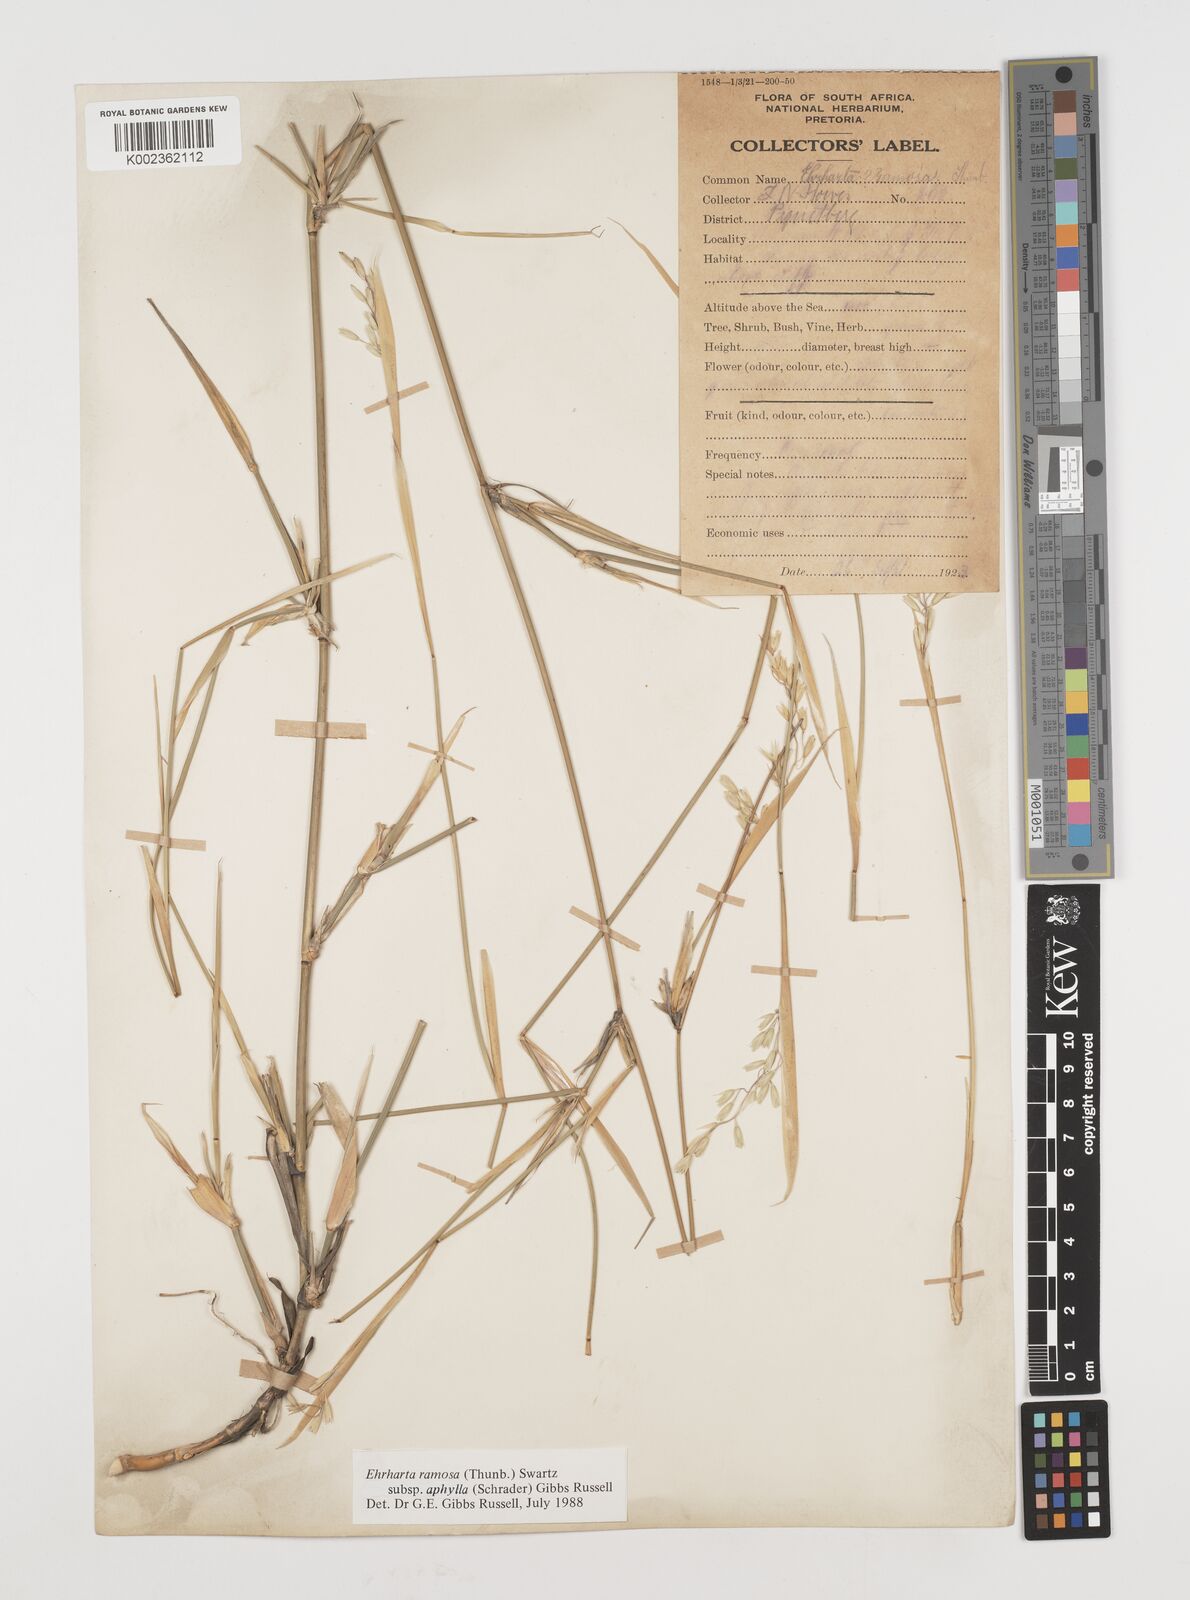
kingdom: Plantae
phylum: Tracheophyta
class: Liliopsida
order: Poales
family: Poaceae
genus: Ehrharta
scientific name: Ehrharta digyna
